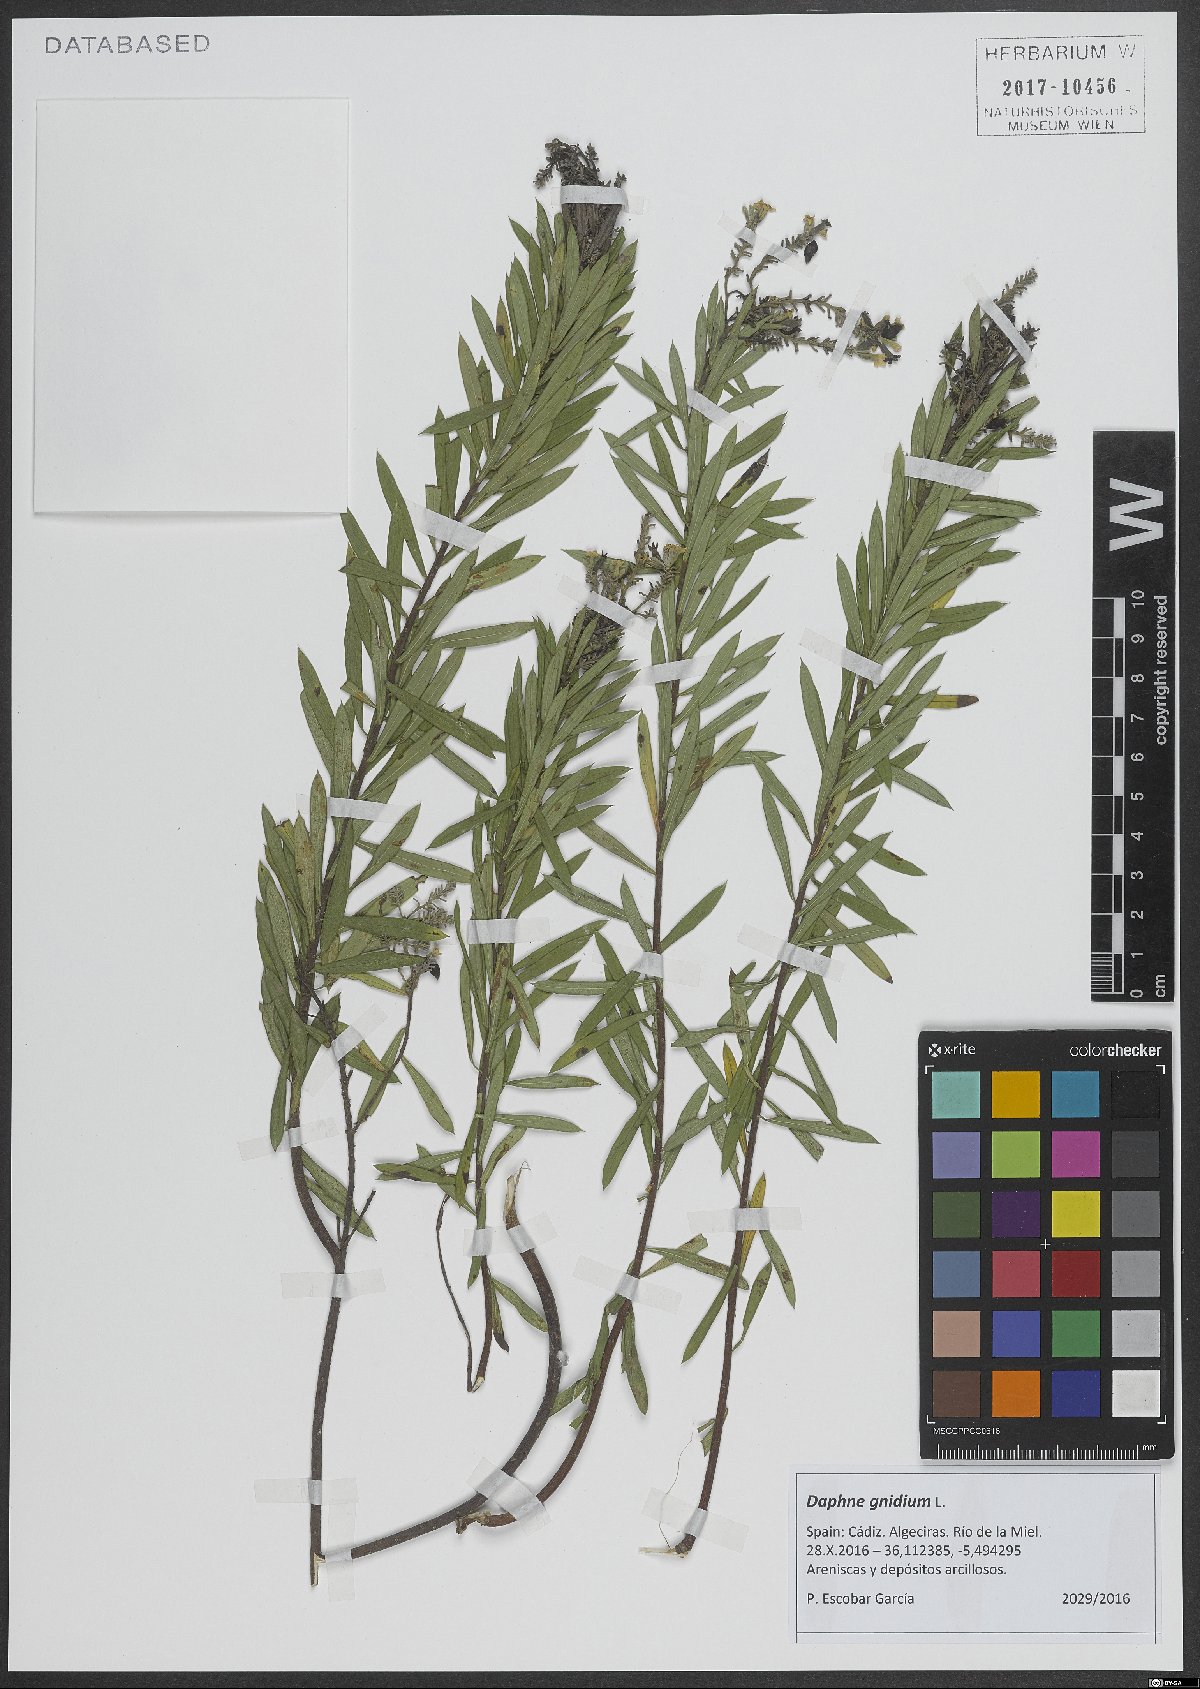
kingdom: Plantae
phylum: Tracheophyta
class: Magnoliopsida
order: Malvales
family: Thymelaeaceae
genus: Daphne
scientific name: Daphne gnidium
